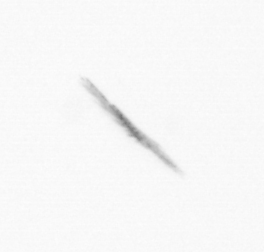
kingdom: Chromista
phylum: Ochrophyta
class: Bacillariophyceae
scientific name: Bacillariophyceae
